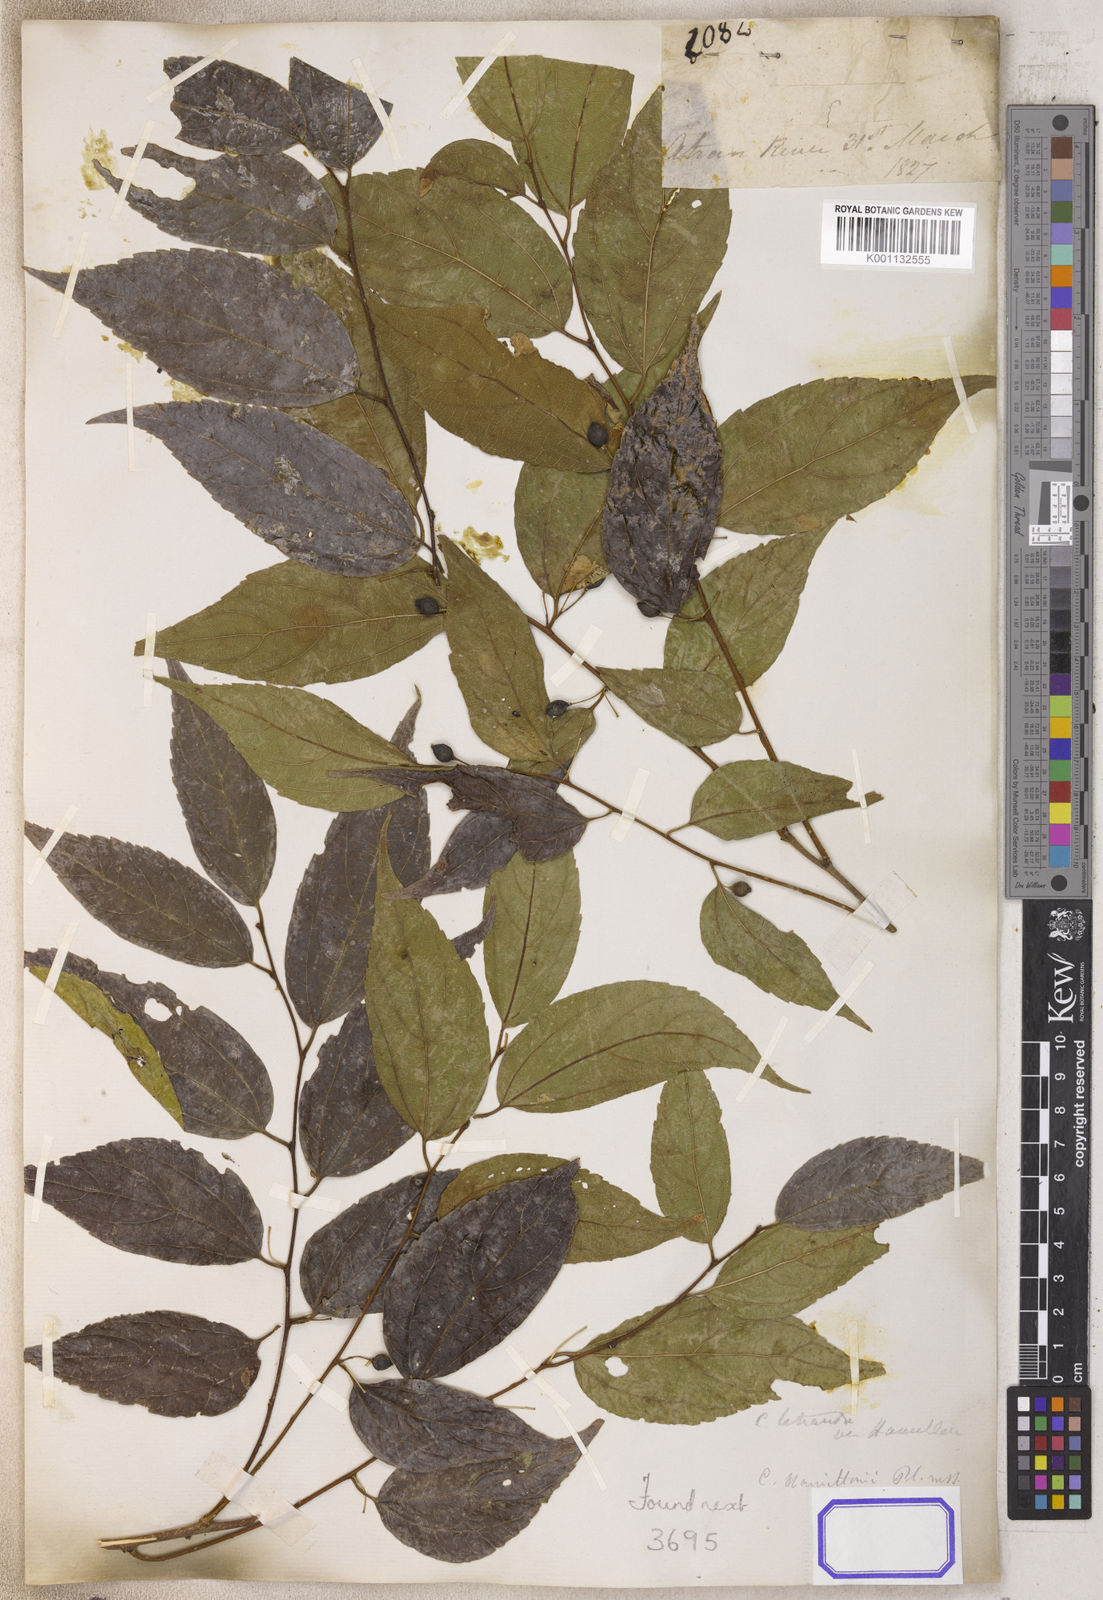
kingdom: Plantae
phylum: Tracheophyta
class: Magnoliopsida
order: Rosales
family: Cannabaceae
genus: Celtis
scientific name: Celtis
